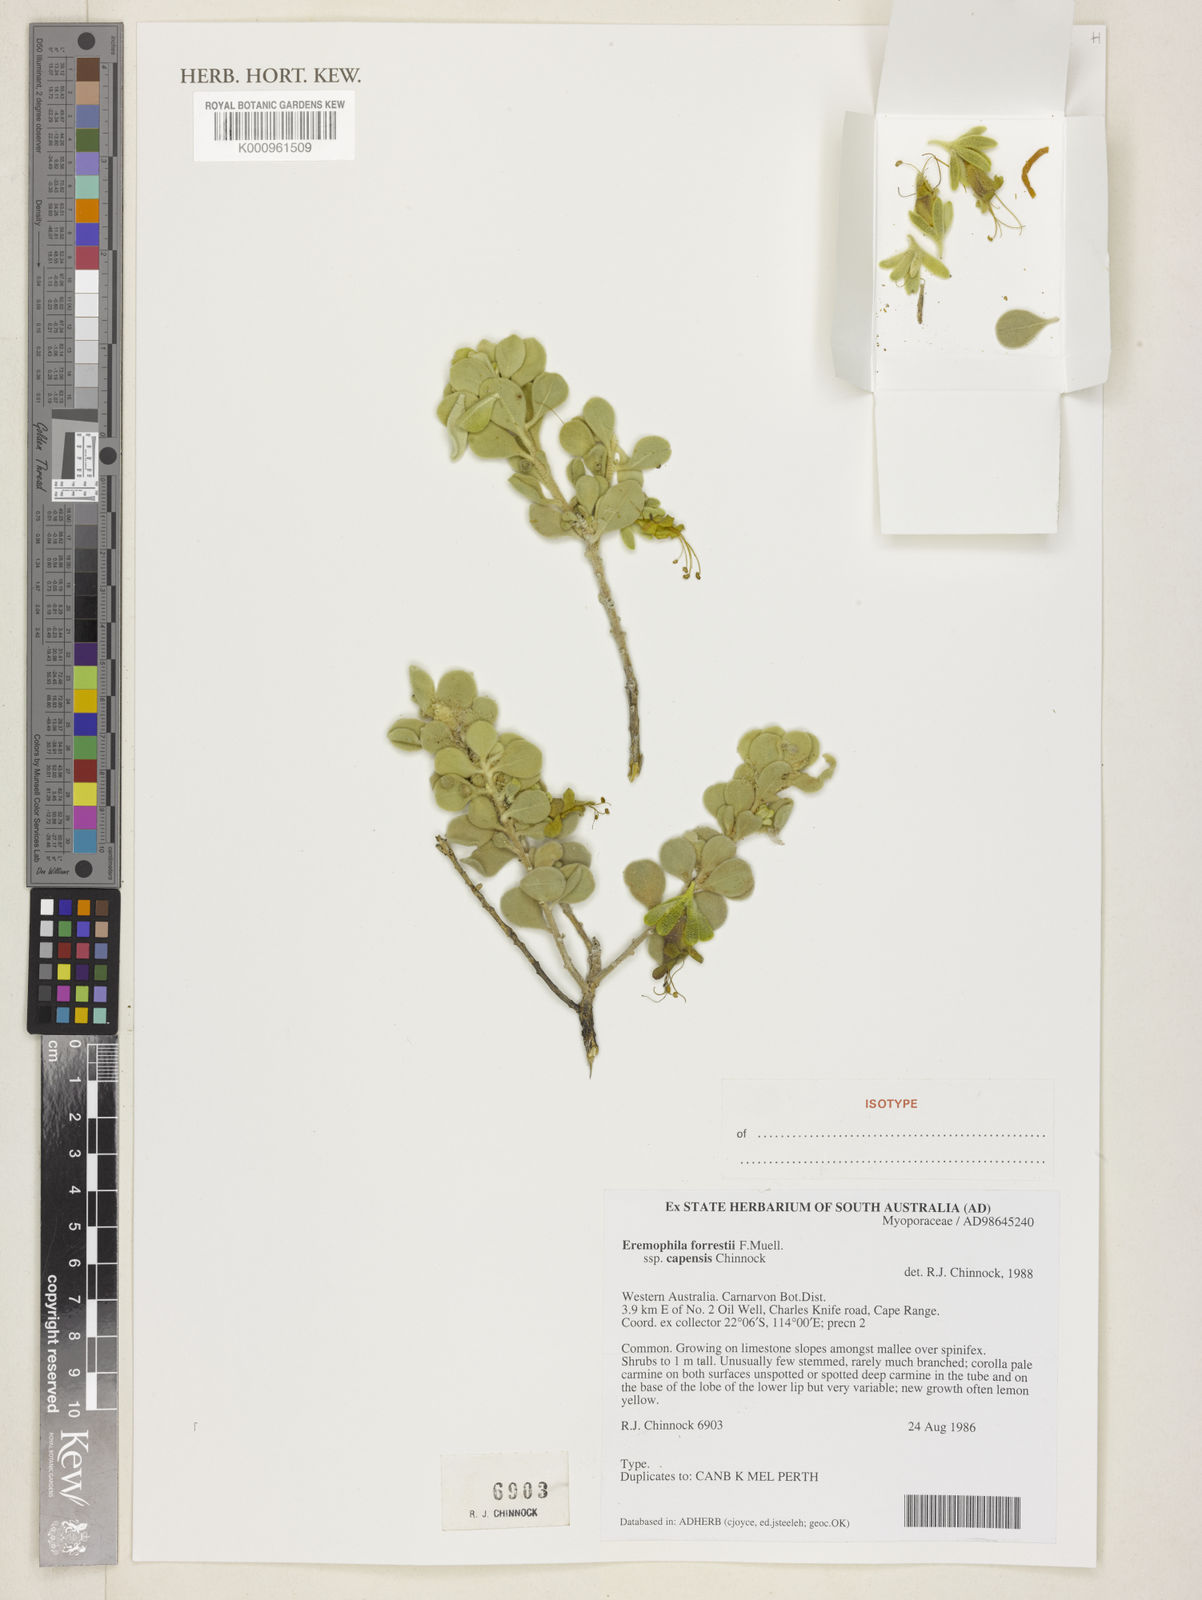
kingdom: Plantae
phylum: Tracheophyta
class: Magnoliopsida
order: Lamiales
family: Scrophulariaceae
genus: Eremophila
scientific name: Eremophila forrestii
